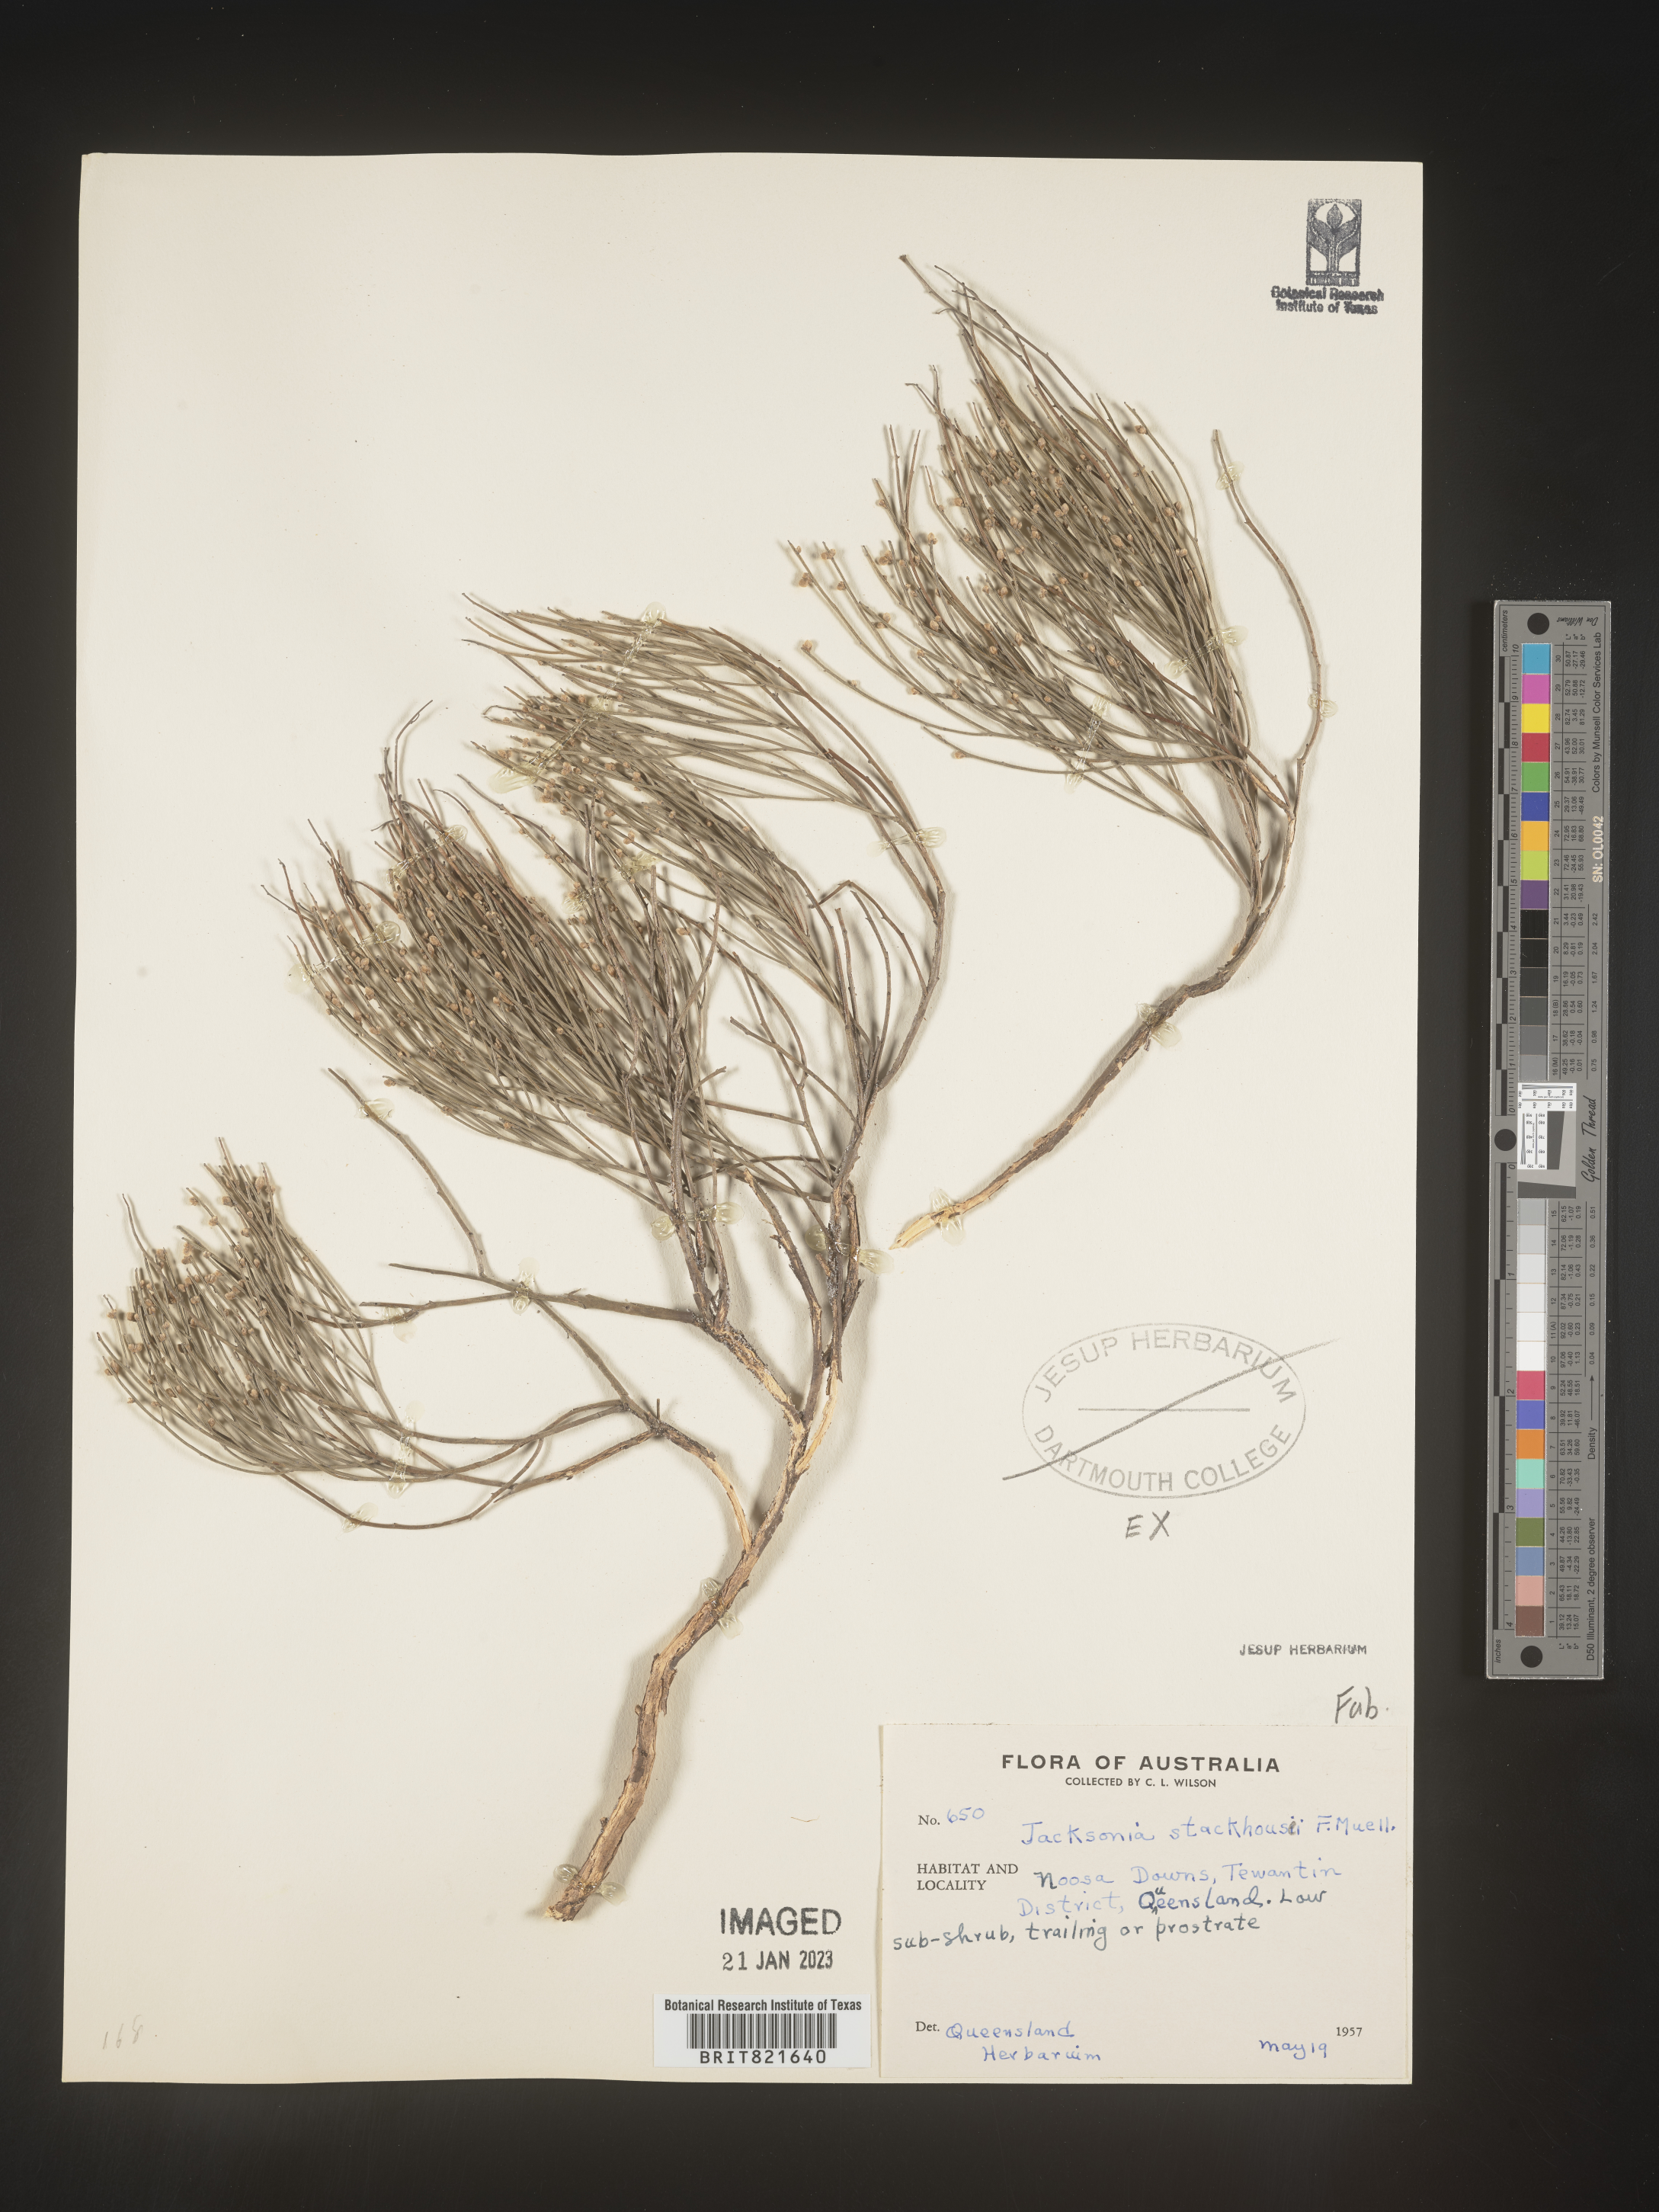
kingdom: Plantae
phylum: Tracheophyta
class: Magnoliopsida
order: Fabales
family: Fabaceae
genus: Jacksonia
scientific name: Jacksonia
